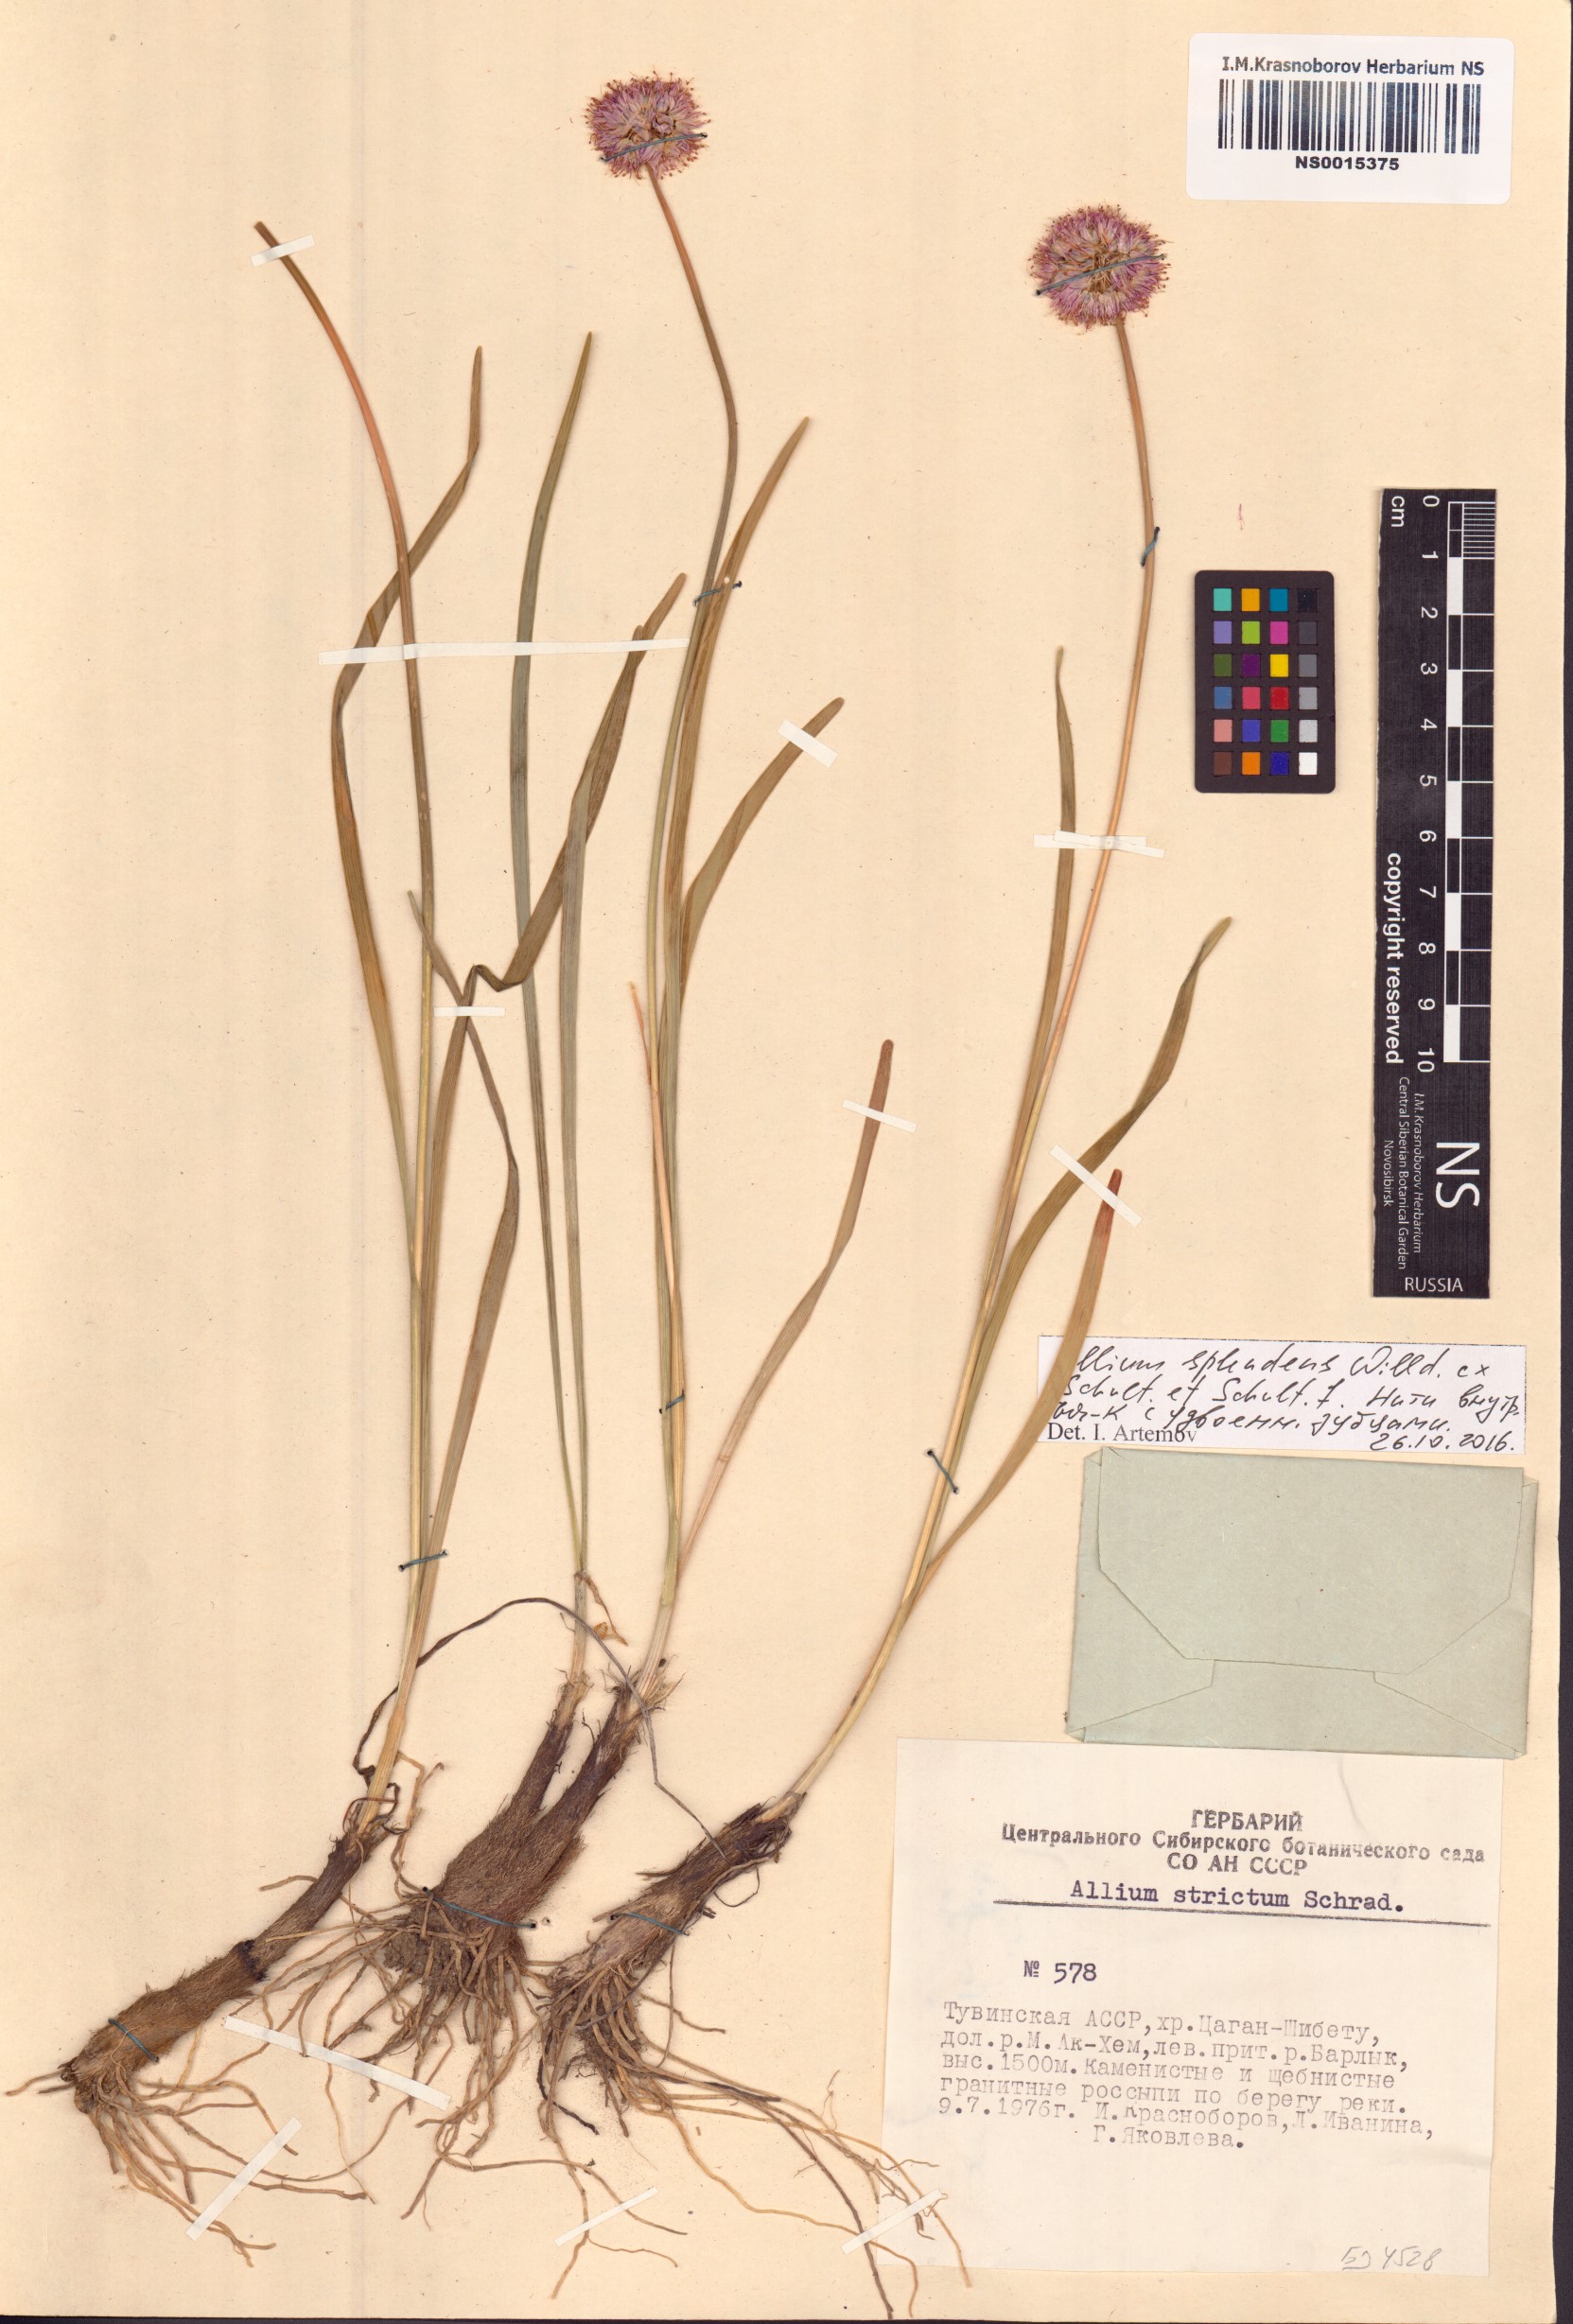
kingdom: Plantae
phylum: Tracheophyta
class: Liliopsida
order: Asparagales
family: Amaryllidaceae
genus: Allium
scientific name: Allium splendens
